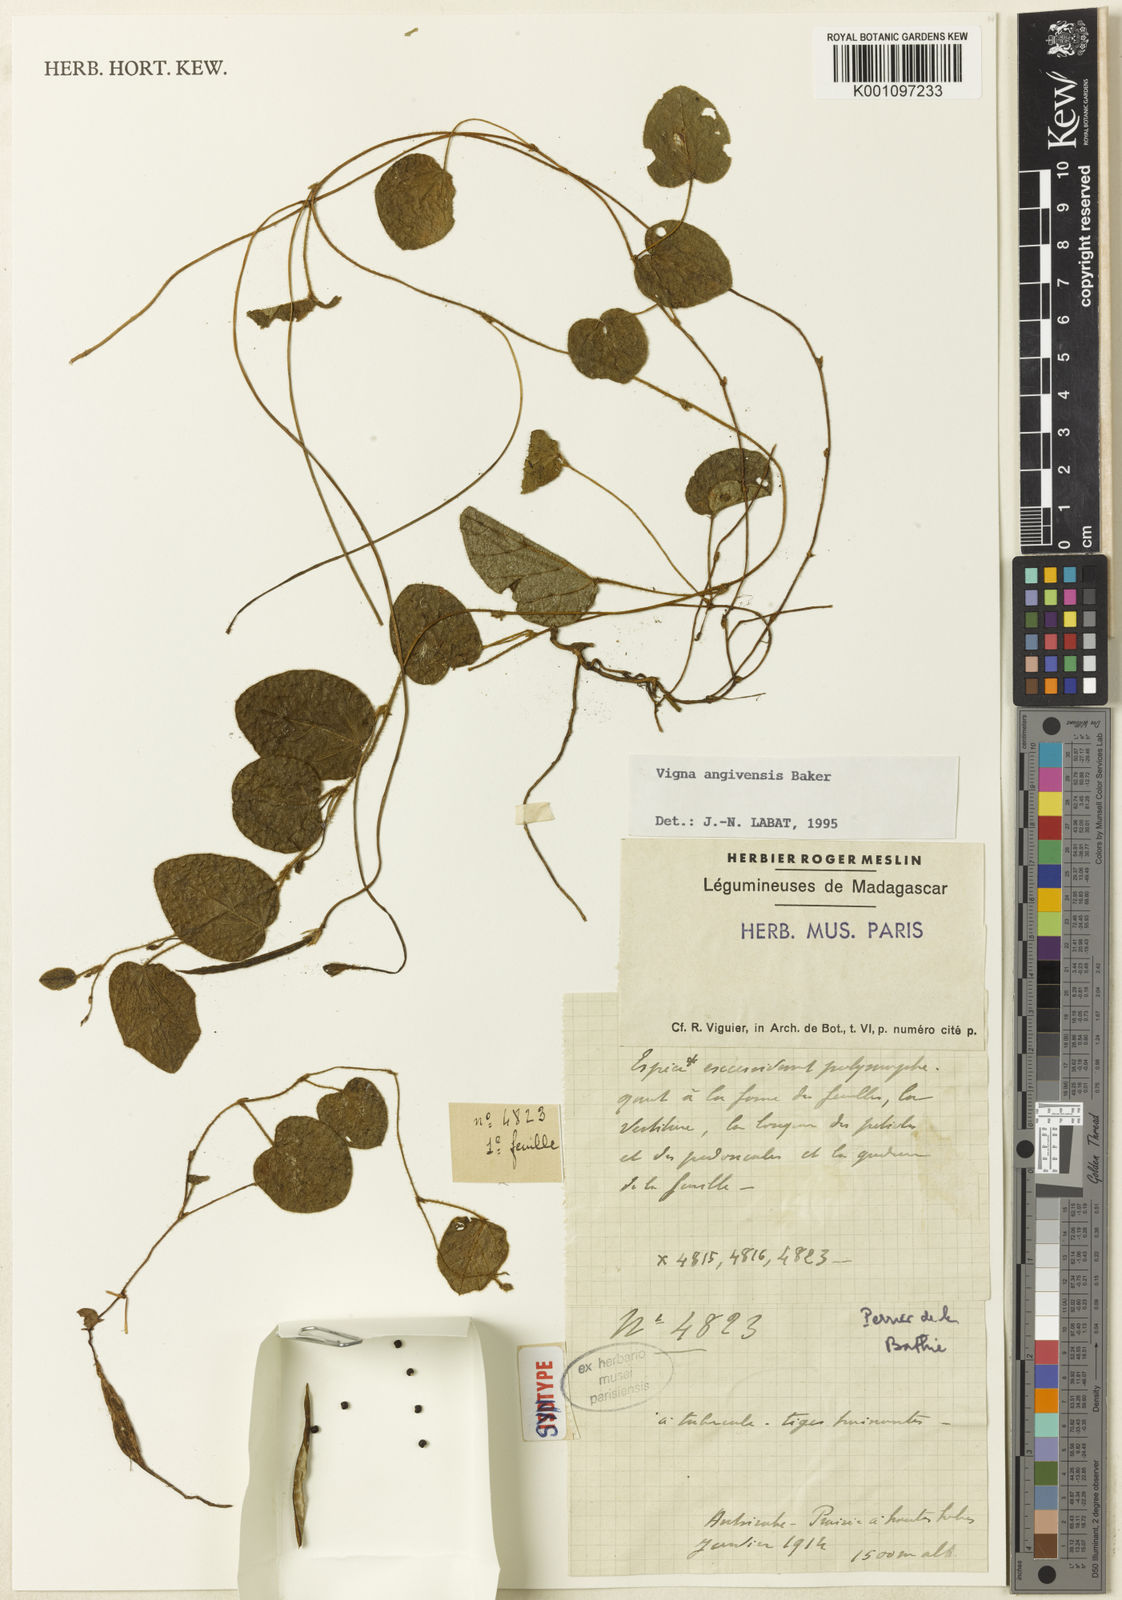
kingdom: Plantae
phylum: Tracheophyta
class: Magnoliopsida
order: Fabales
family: Fabaceae
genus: Vigna
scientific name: Vigna angivensis
